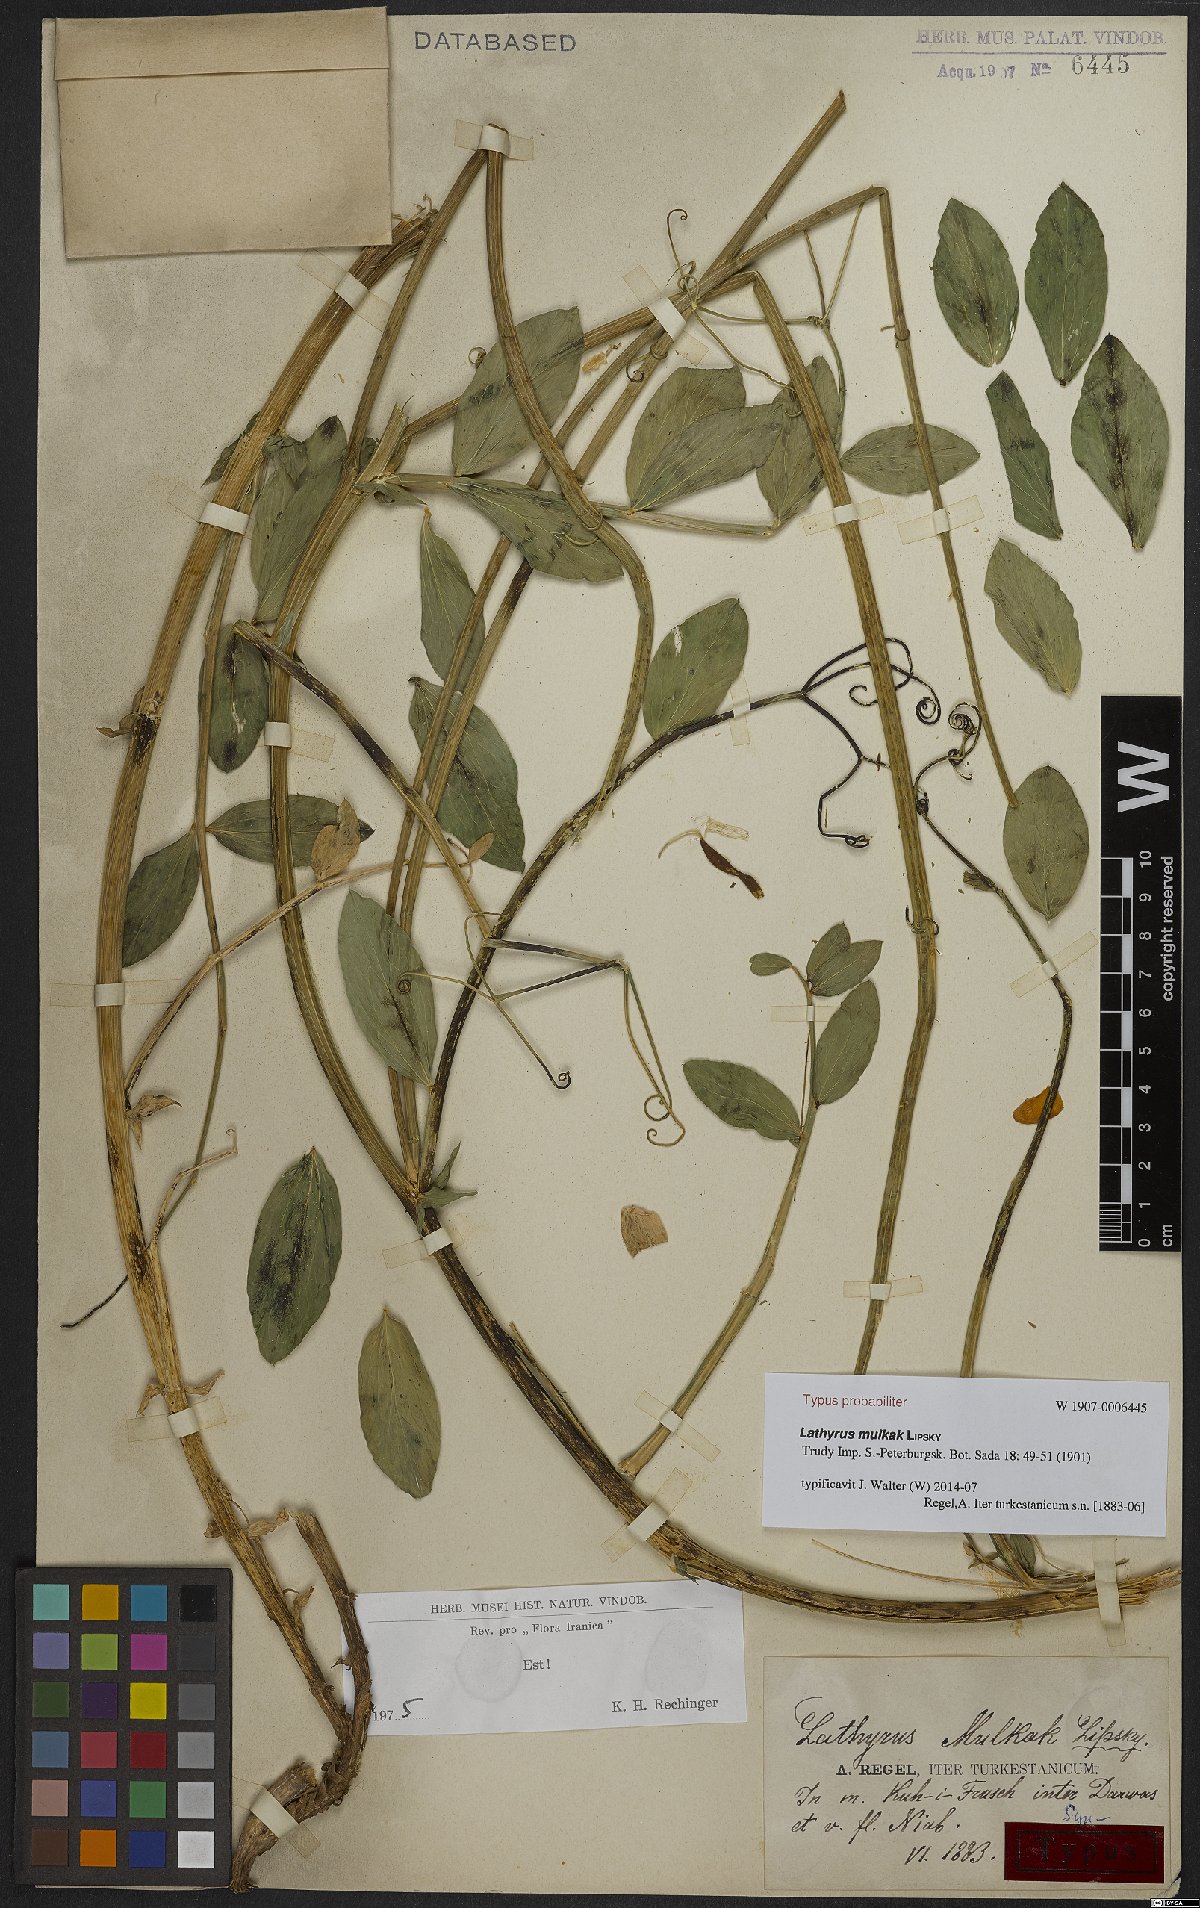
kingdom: Plantae
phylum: Tracheophyta
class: Magnoliopsida
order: Fabales
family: Fabaceae
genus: Lathyrus
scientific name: Lathyrus mulkak
